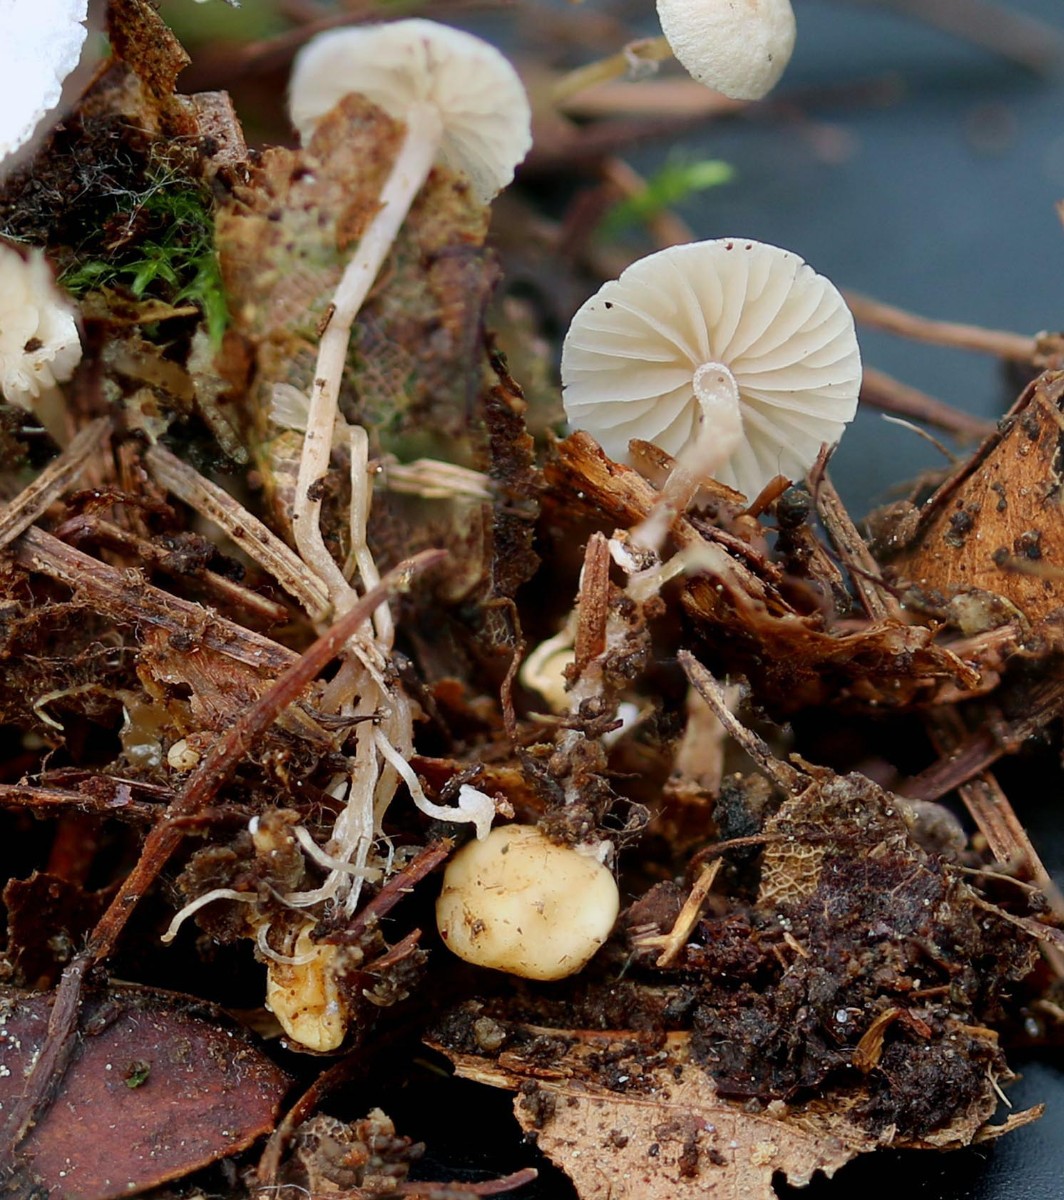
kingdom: Fungi
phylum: Basidiomycota
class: Agaricomycetes
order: Agaricales
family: Tricholomataceae
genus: Collybia
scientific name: Collybia cookei
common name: gulknoldet lighat
